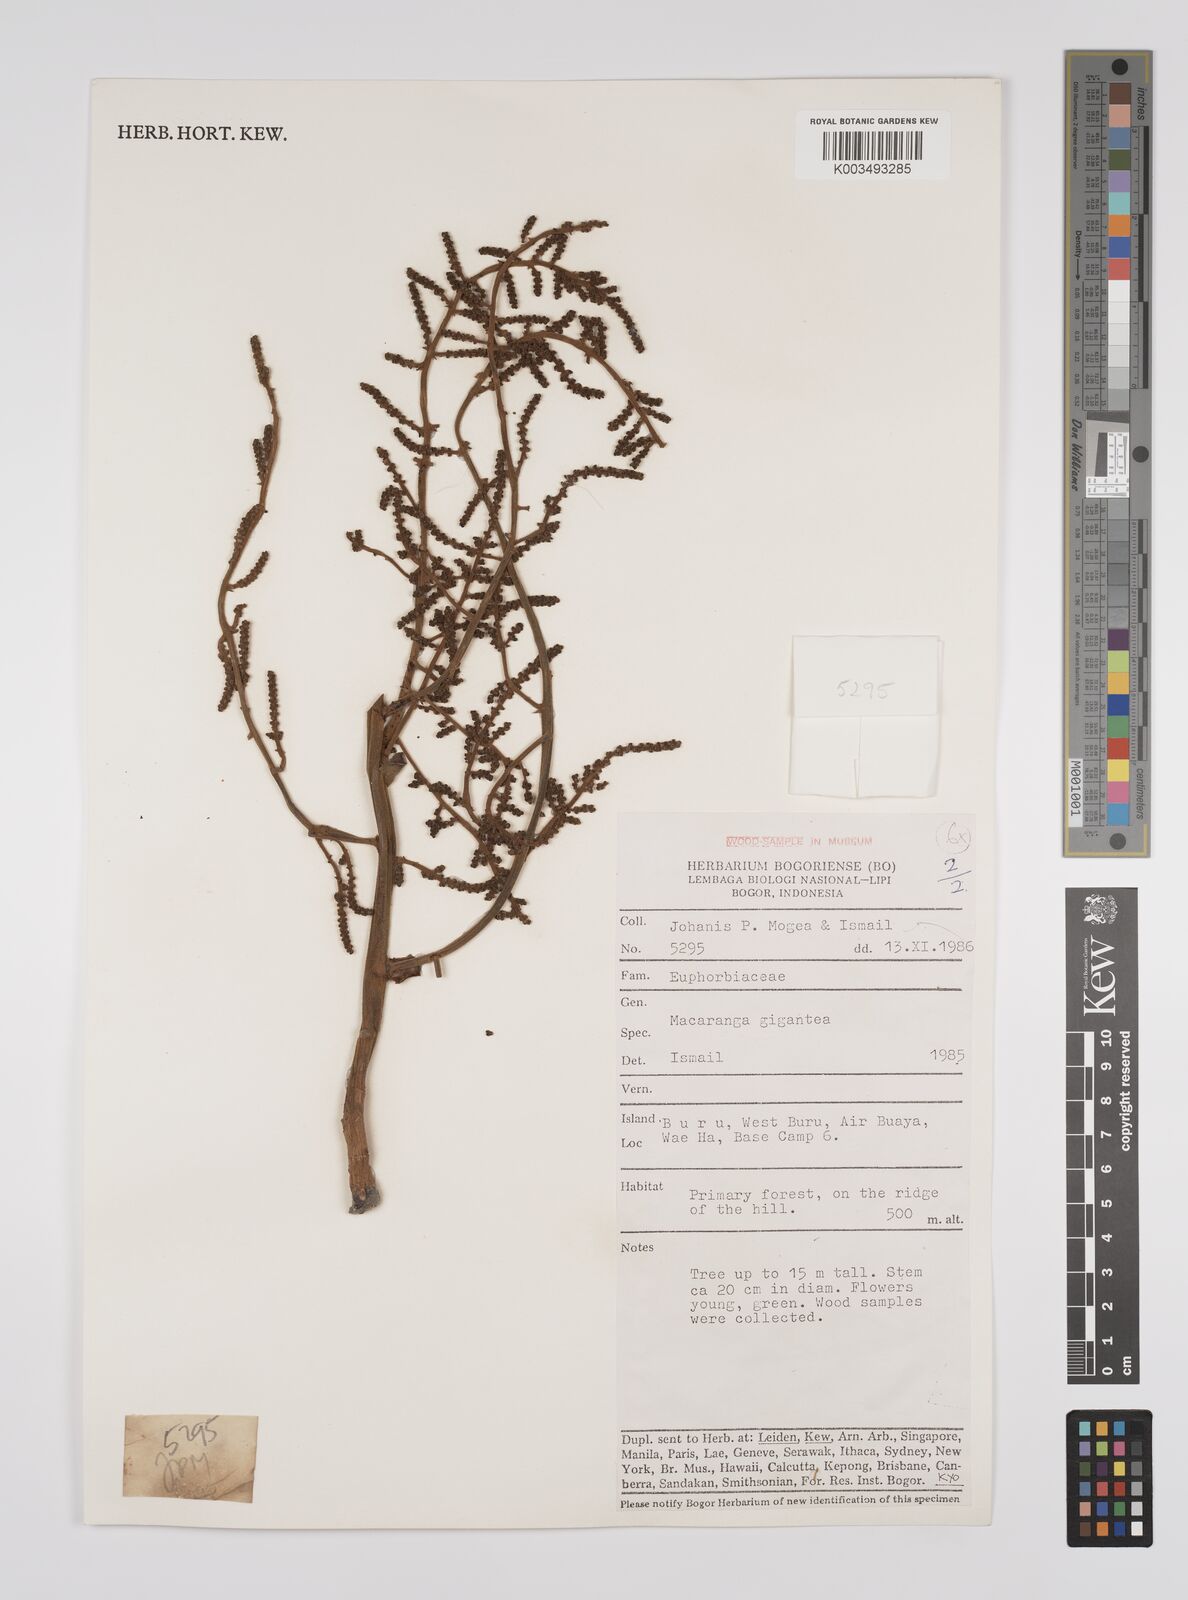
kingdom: Plantae
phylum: Tracheophyta
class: Magnoliopsida
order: Malpighiales
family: Euphorbiaceae
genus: Macaranga
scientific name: Macaranga mappa
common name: Pengua
